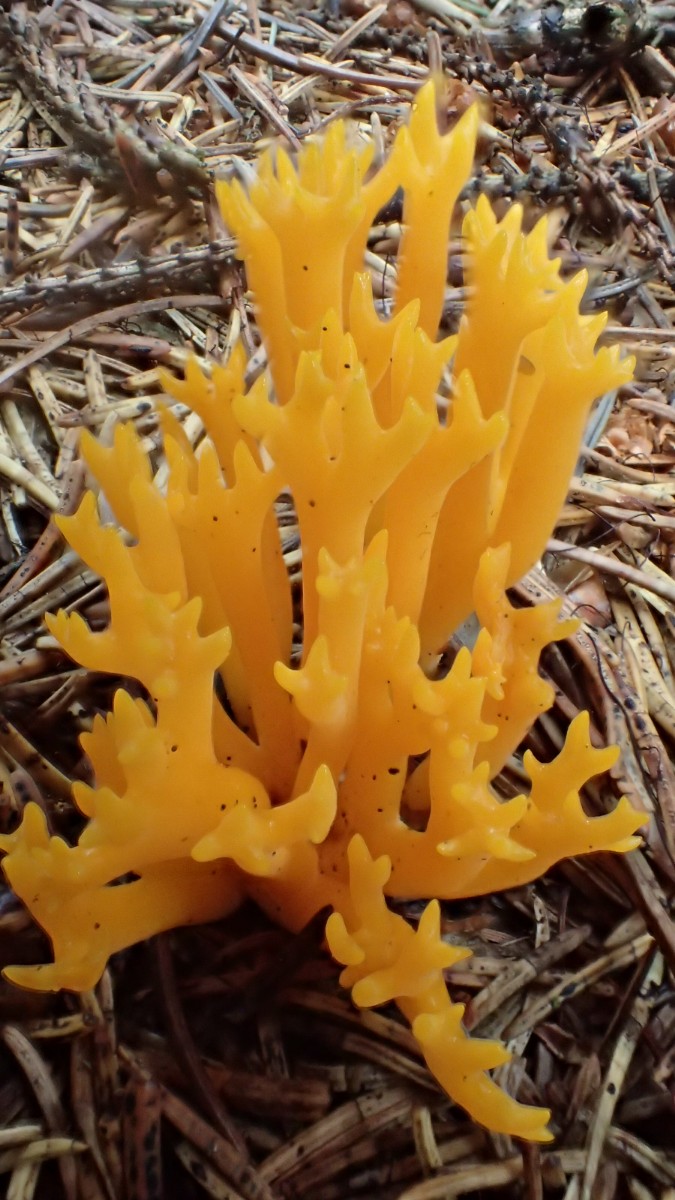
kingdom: Fungi
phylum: Basidiomycota
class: Dacrymycetes
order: Dacrymycetales
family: Dacrymycetaceae
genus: Calocera
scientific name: Calocera viscosa
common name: almindelig guldgaffel
